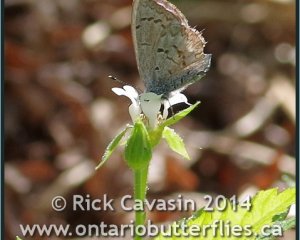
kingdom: Animalia
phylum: Arthropoda
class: Insecta
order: Lepidoptera
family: Lycaenidae
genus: Celastrina
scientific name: Celastrina lucia
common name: Northern Spring Azure
